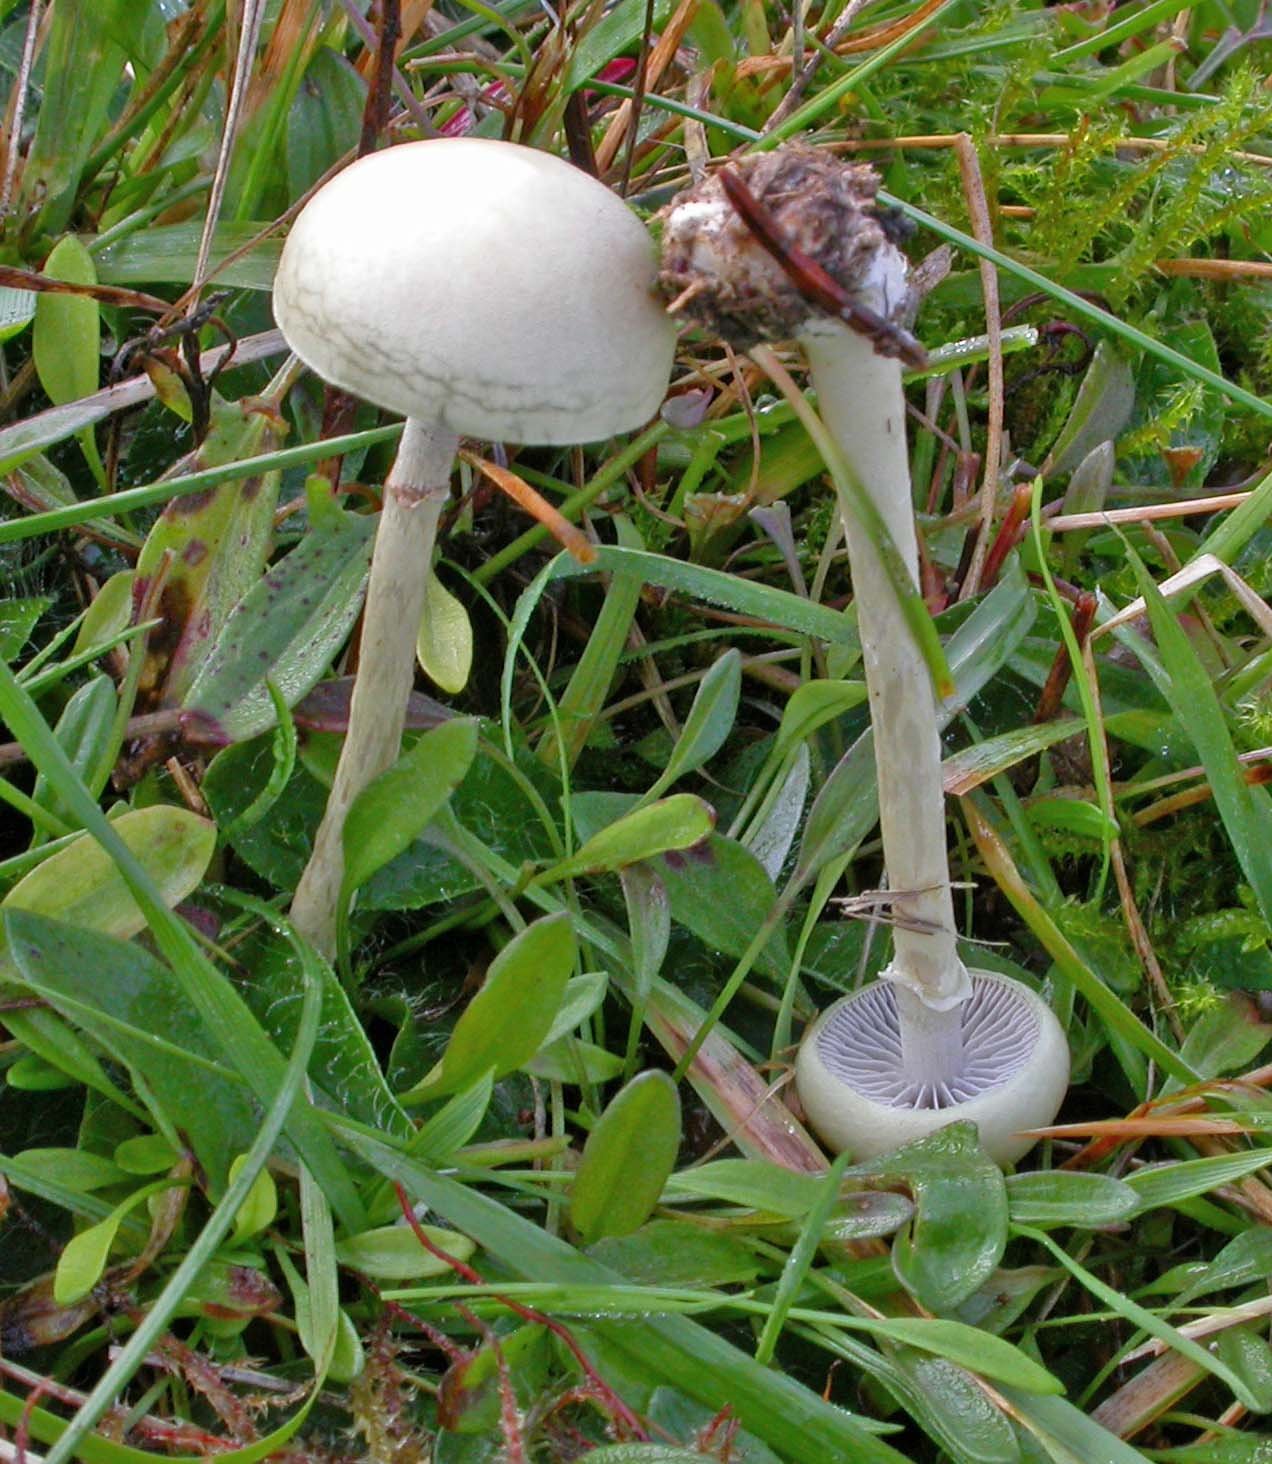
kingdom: Fungi
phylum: Basidiomycota
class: Agaricomycetes
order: Agaricales
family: Strophariaceae
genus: Protostropharia
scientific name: Protostropharia semiglobata
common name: halvkugleformet bredblad
